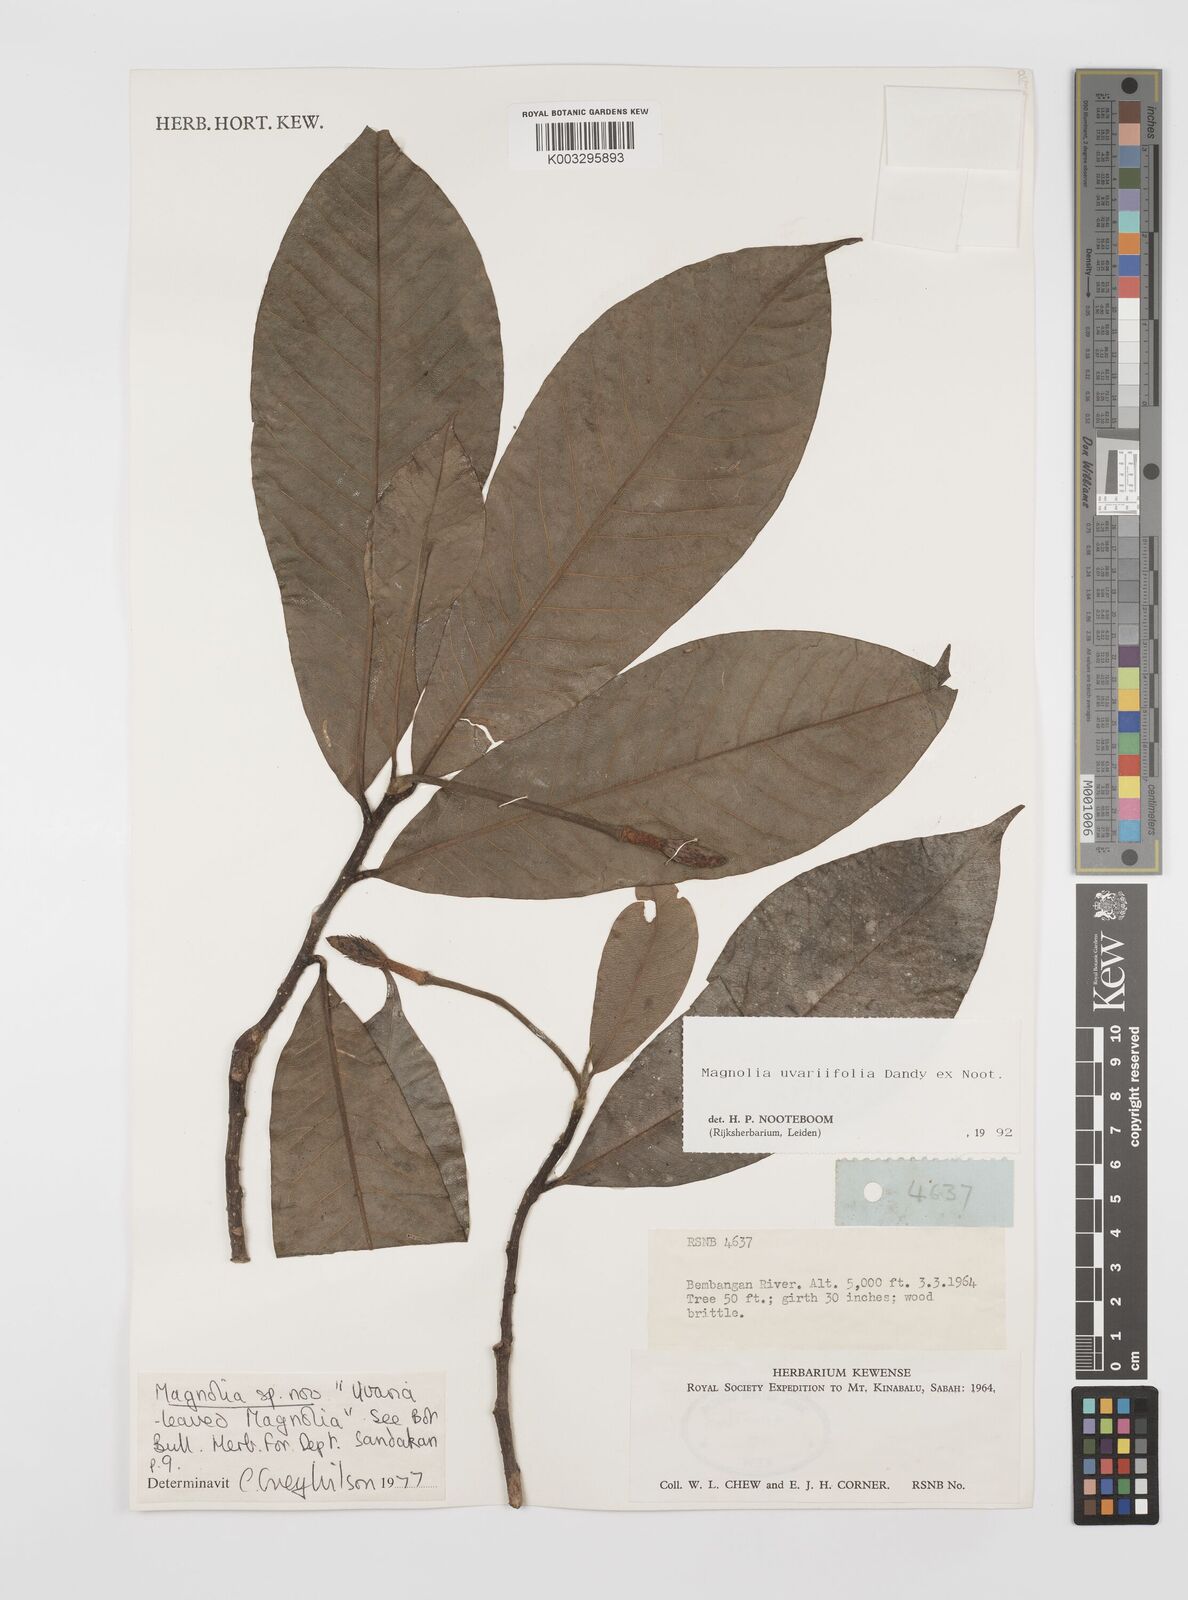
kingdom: Plantae
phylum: Tracheophyta
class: Magnoliopsida
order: Magnoliales
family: Magnoliaceae
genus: Magnolia
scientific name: Magnolia macklottii
